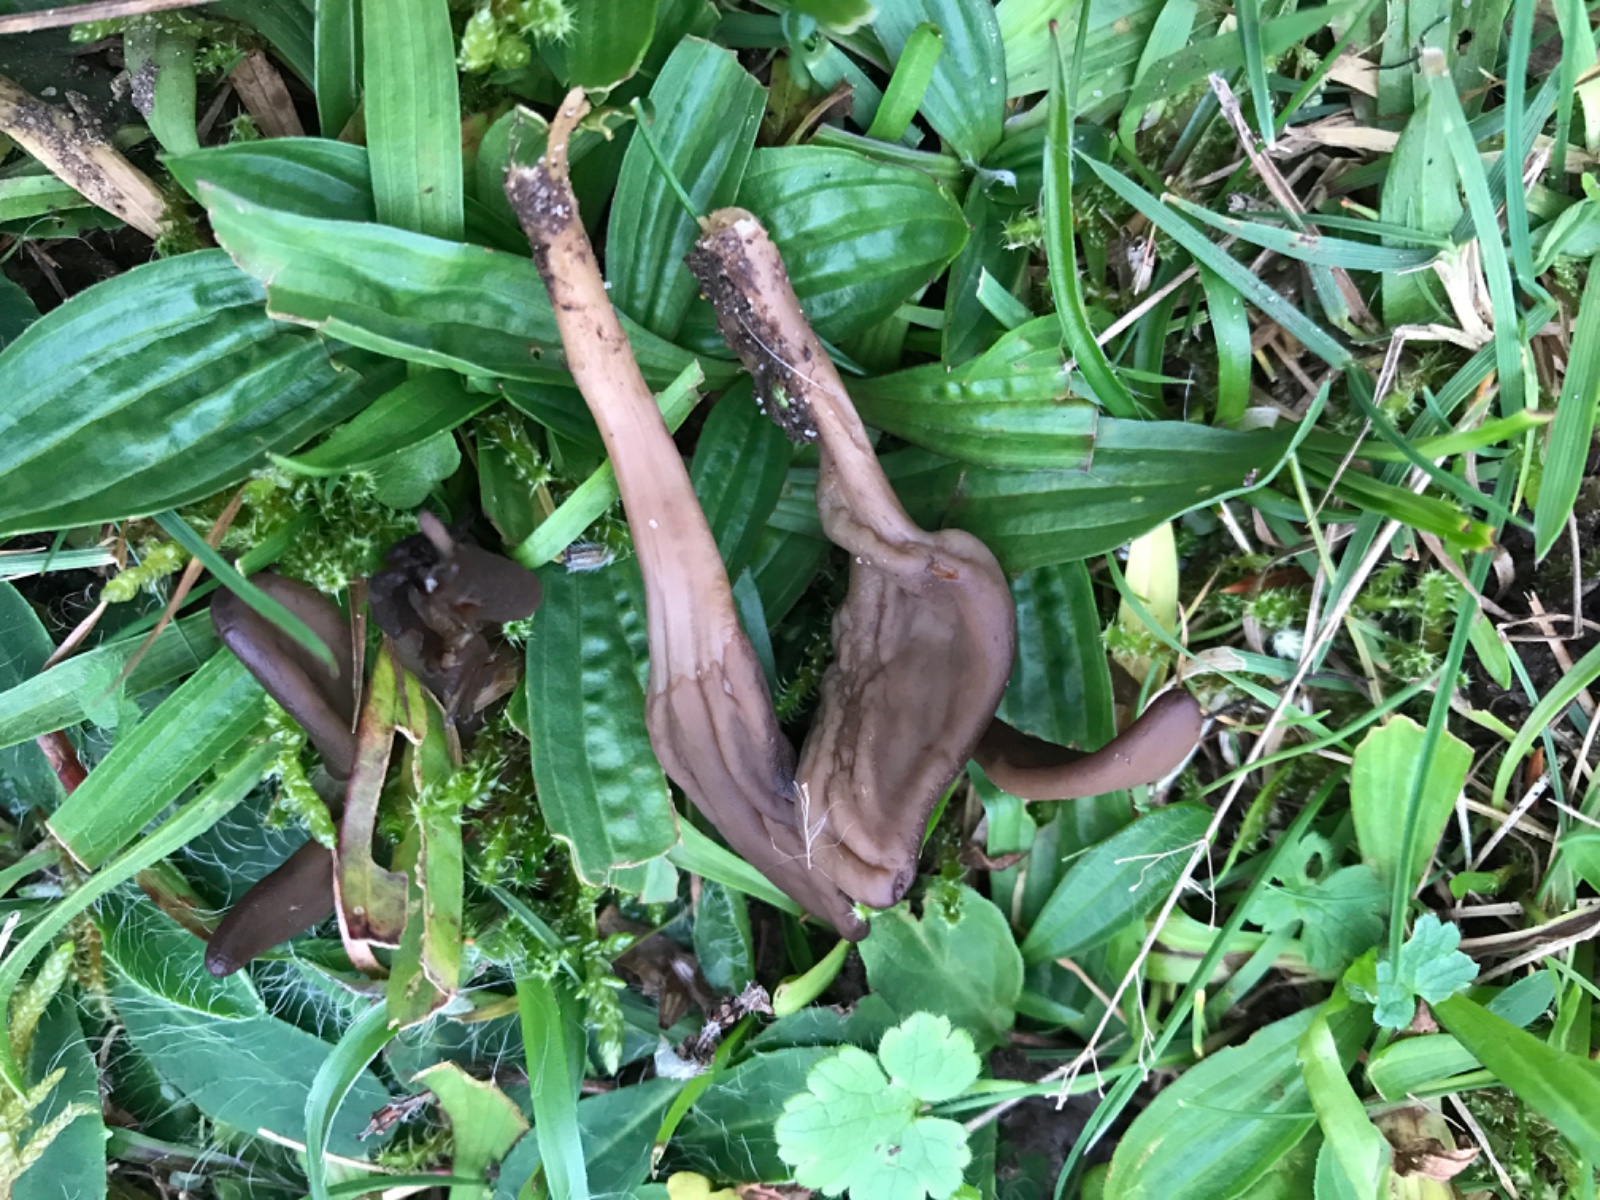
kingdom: Fungi
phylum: Ascomycota
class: Leotiomycetes
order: Leotiales
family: Leotiaceae
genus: Microglossum
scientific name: Microglossum olivaceum
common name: olivenbrun farvetunge
